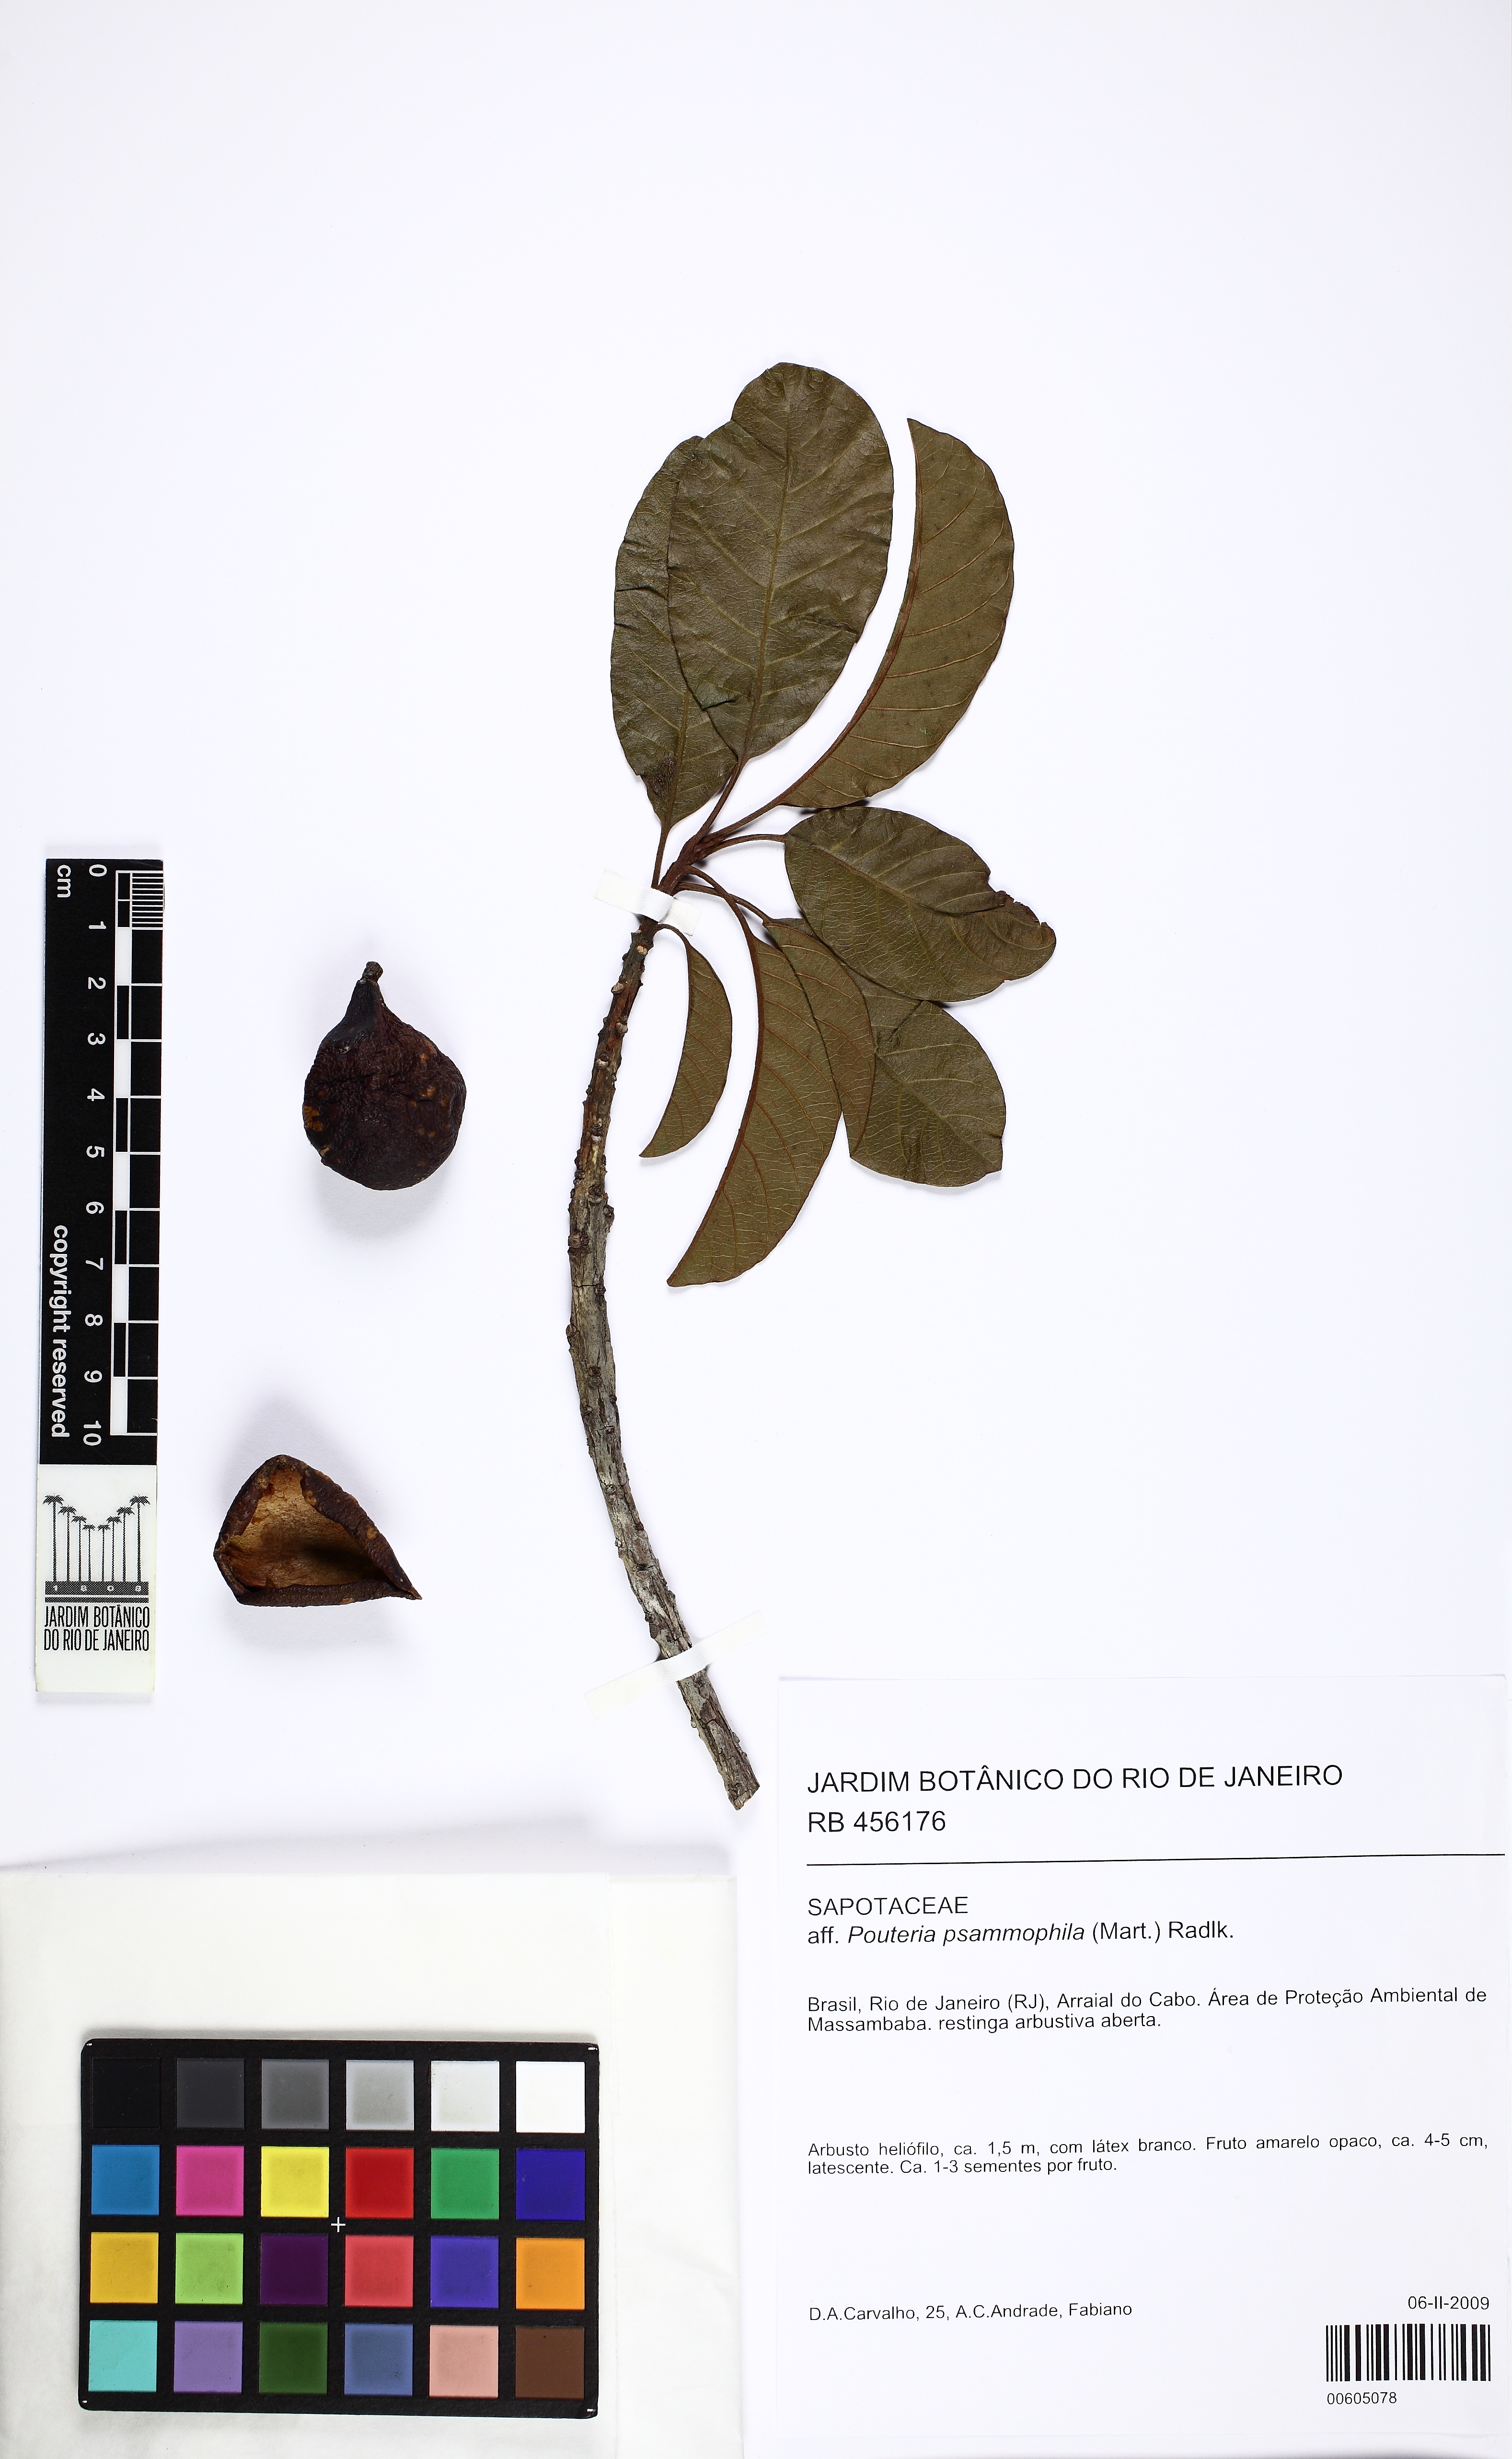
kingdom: Plantae
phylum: Tracheophyta
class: Magnoliopsida
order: Ericales
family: Sapotaceae
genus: Pouteria
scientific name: Pouteria psammophila
